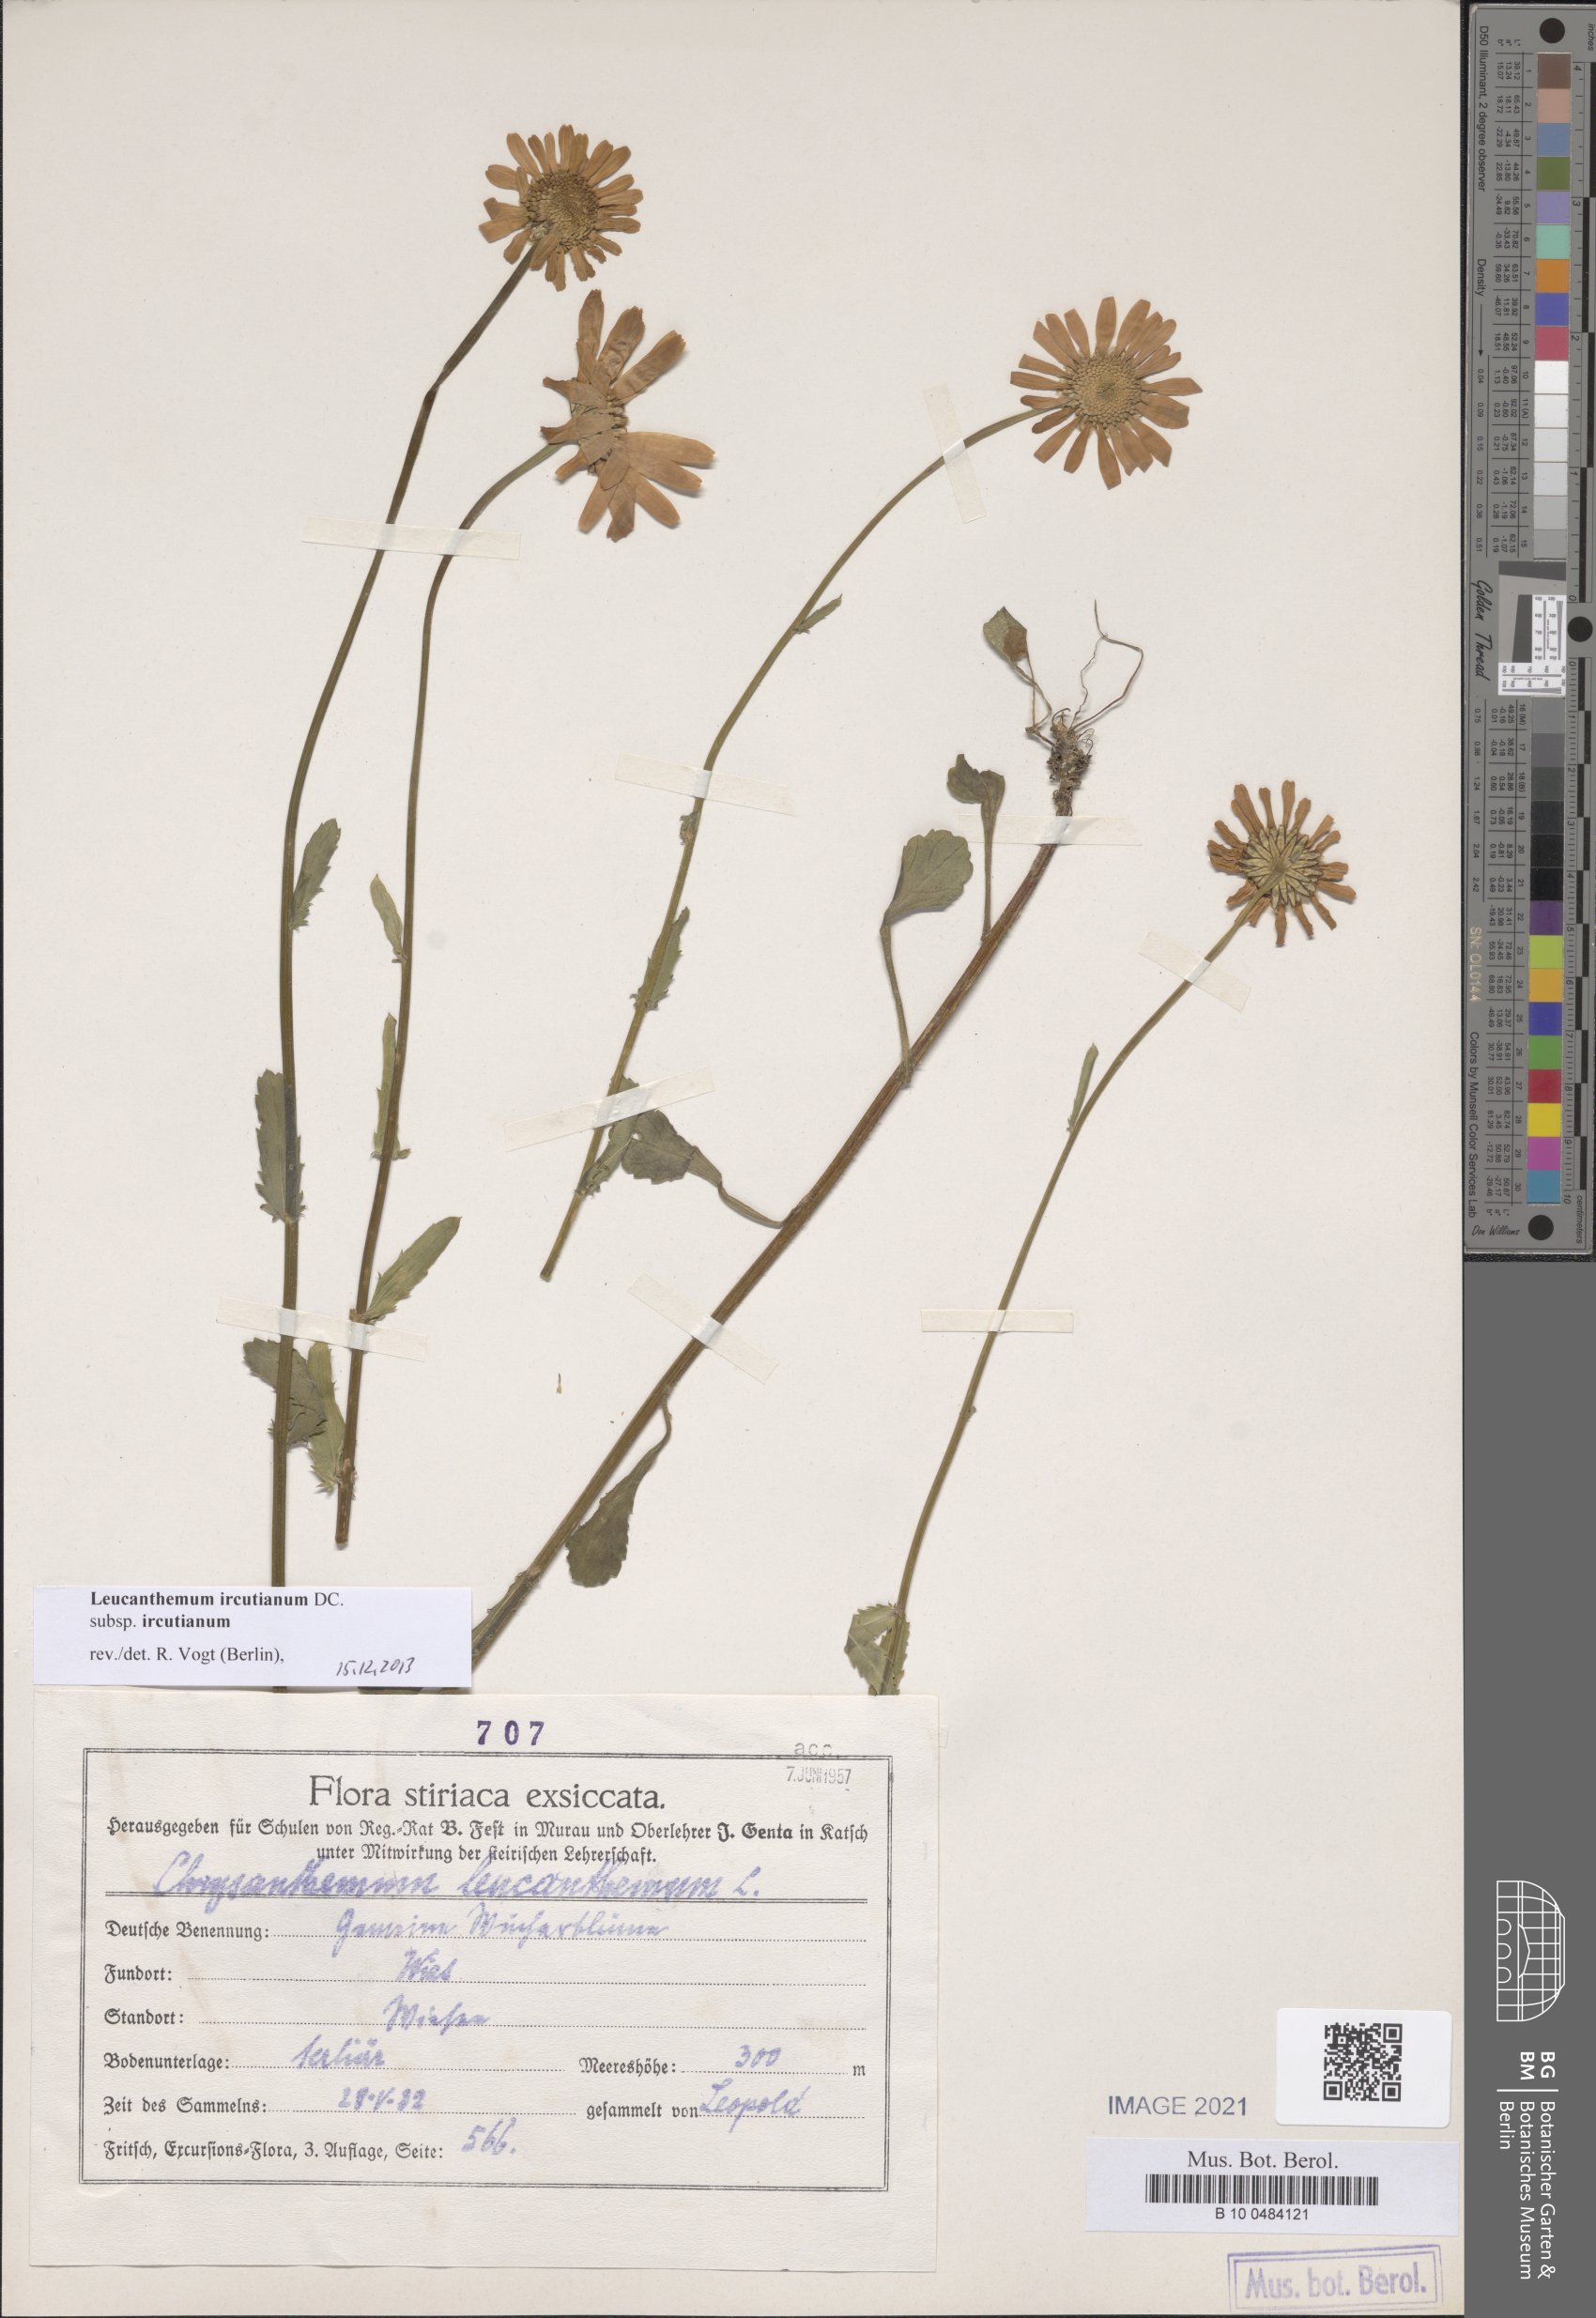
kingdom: Plantae
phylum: Tracheophyta
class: Magnoliopsida
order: Asterales
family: Asteraceae
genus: Leucanthemum
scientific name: Leucanthemum ircutianum
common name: Daisy
